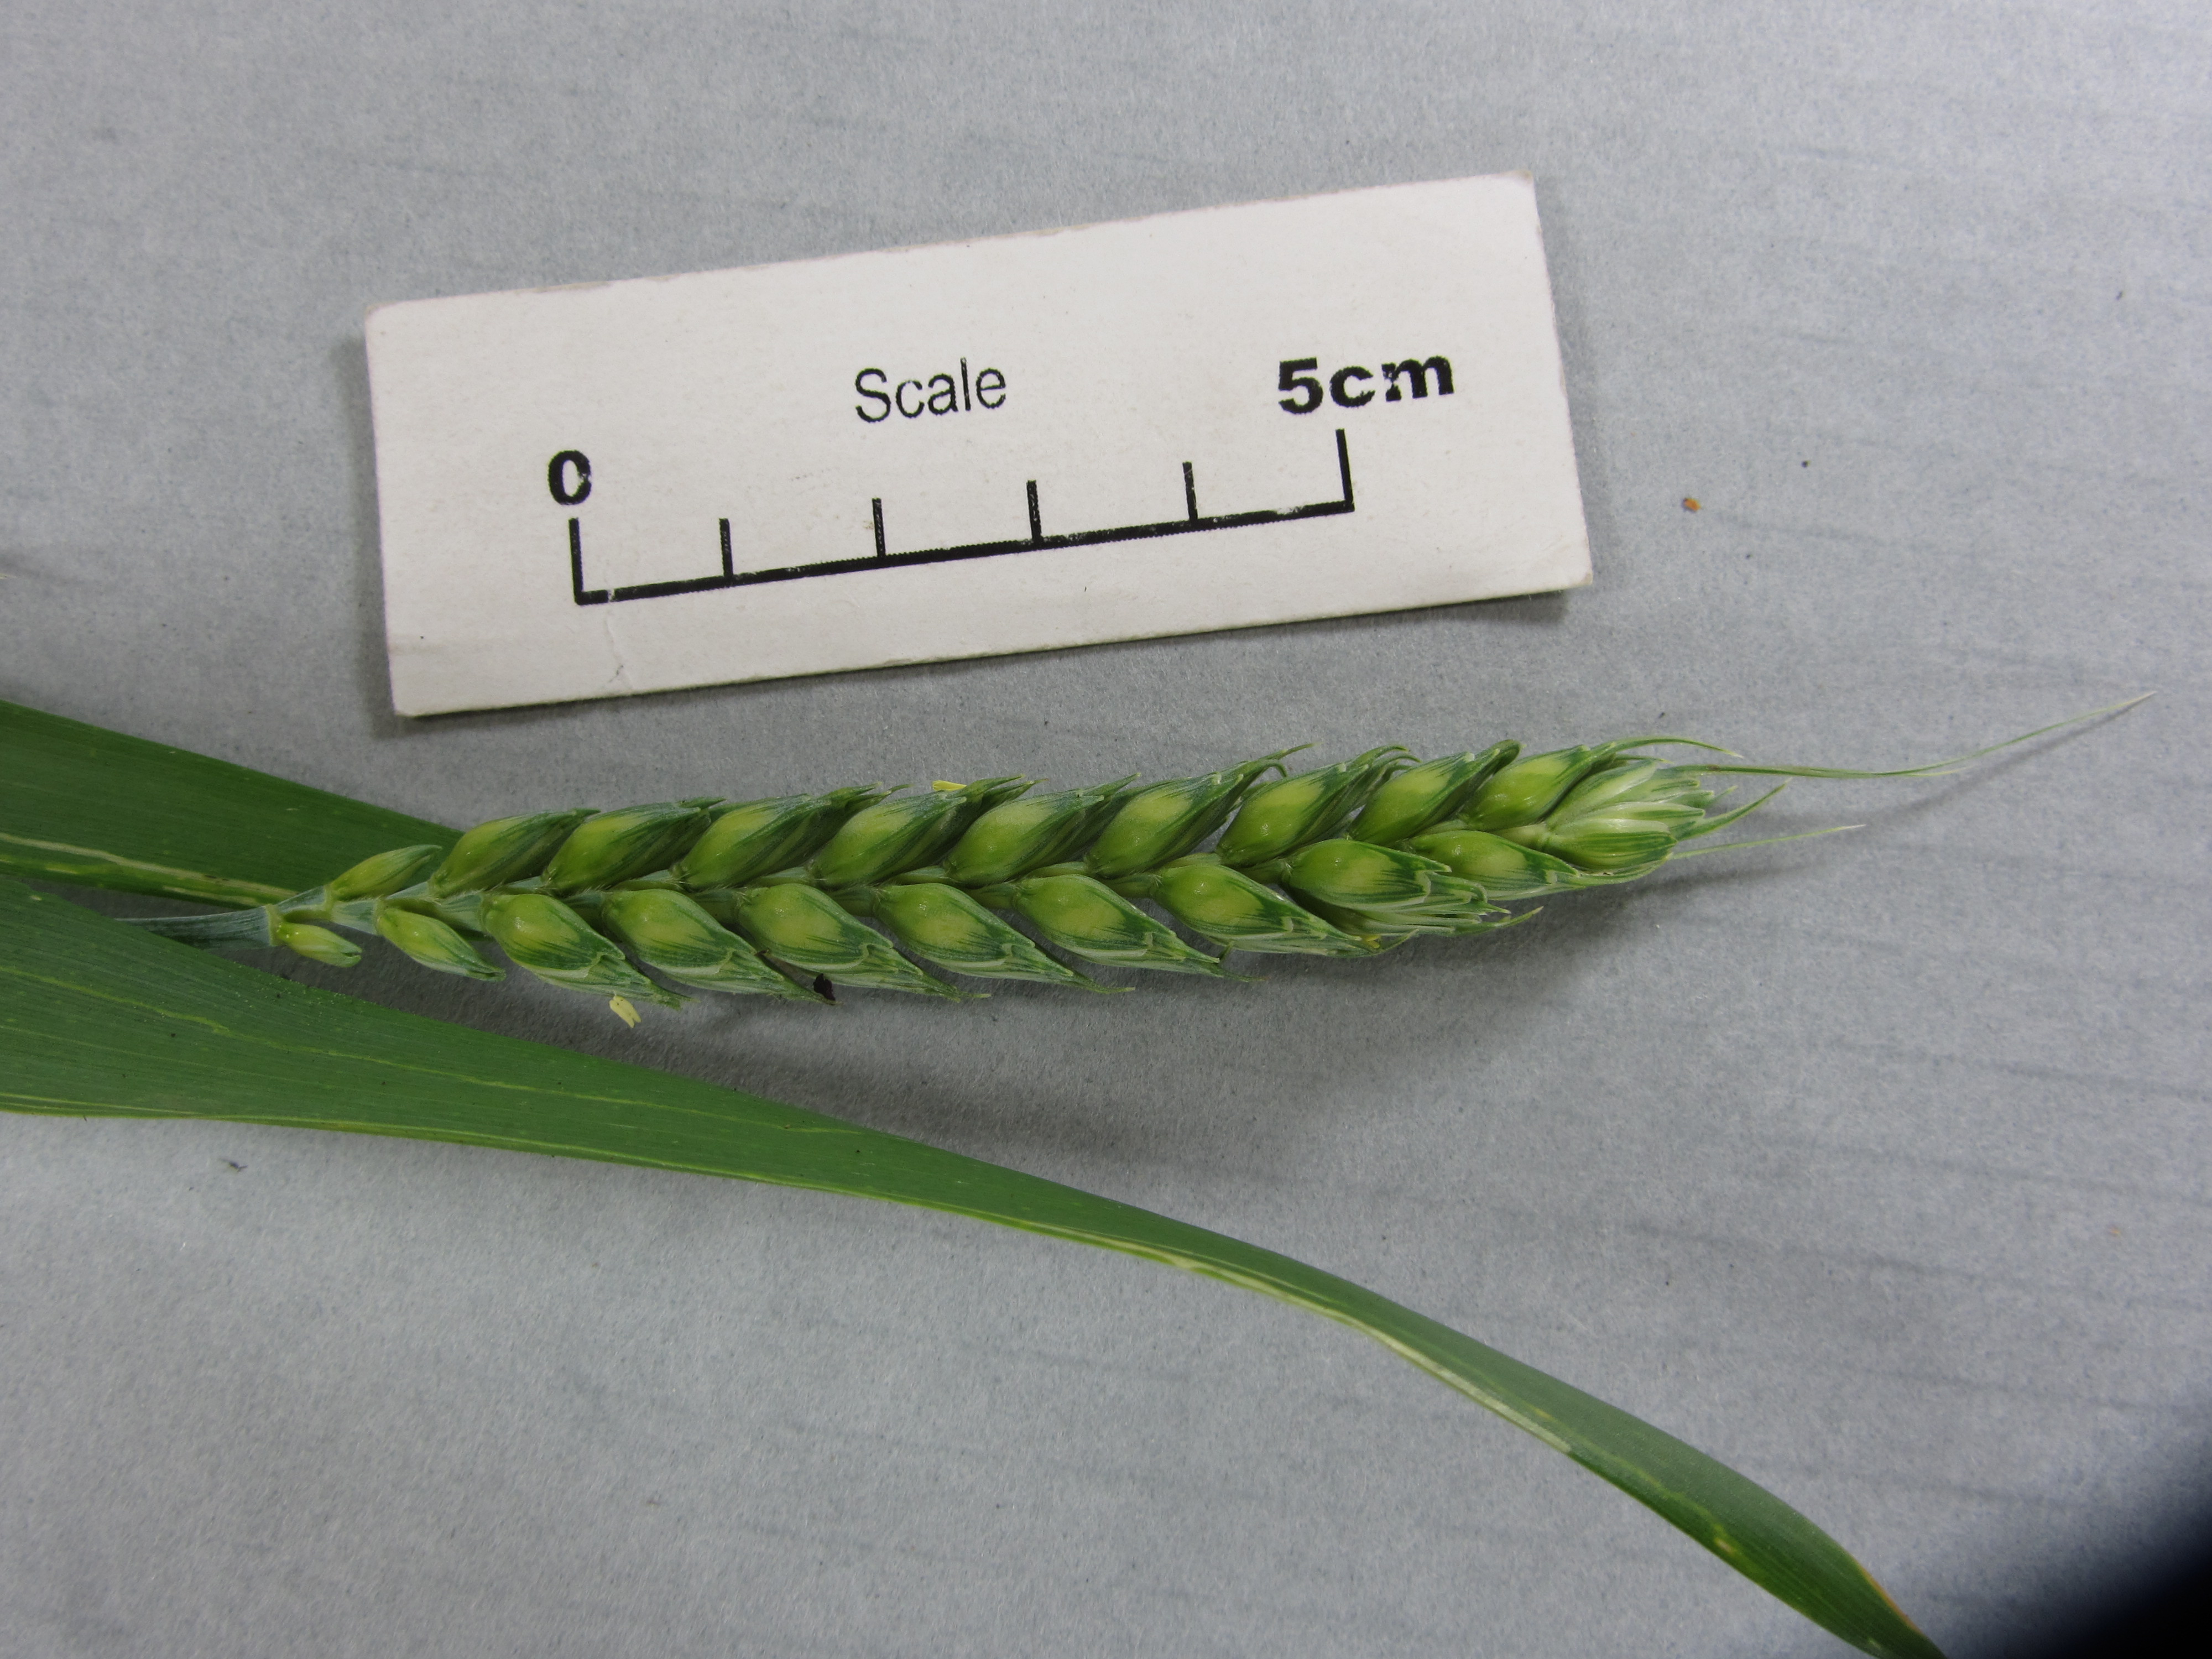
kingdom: Plantae
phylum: Tracheophyta
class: Liliopsida
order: Poales
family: Poaceae
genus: Triticum
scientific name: Triticum aestivum
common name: Common wheat
